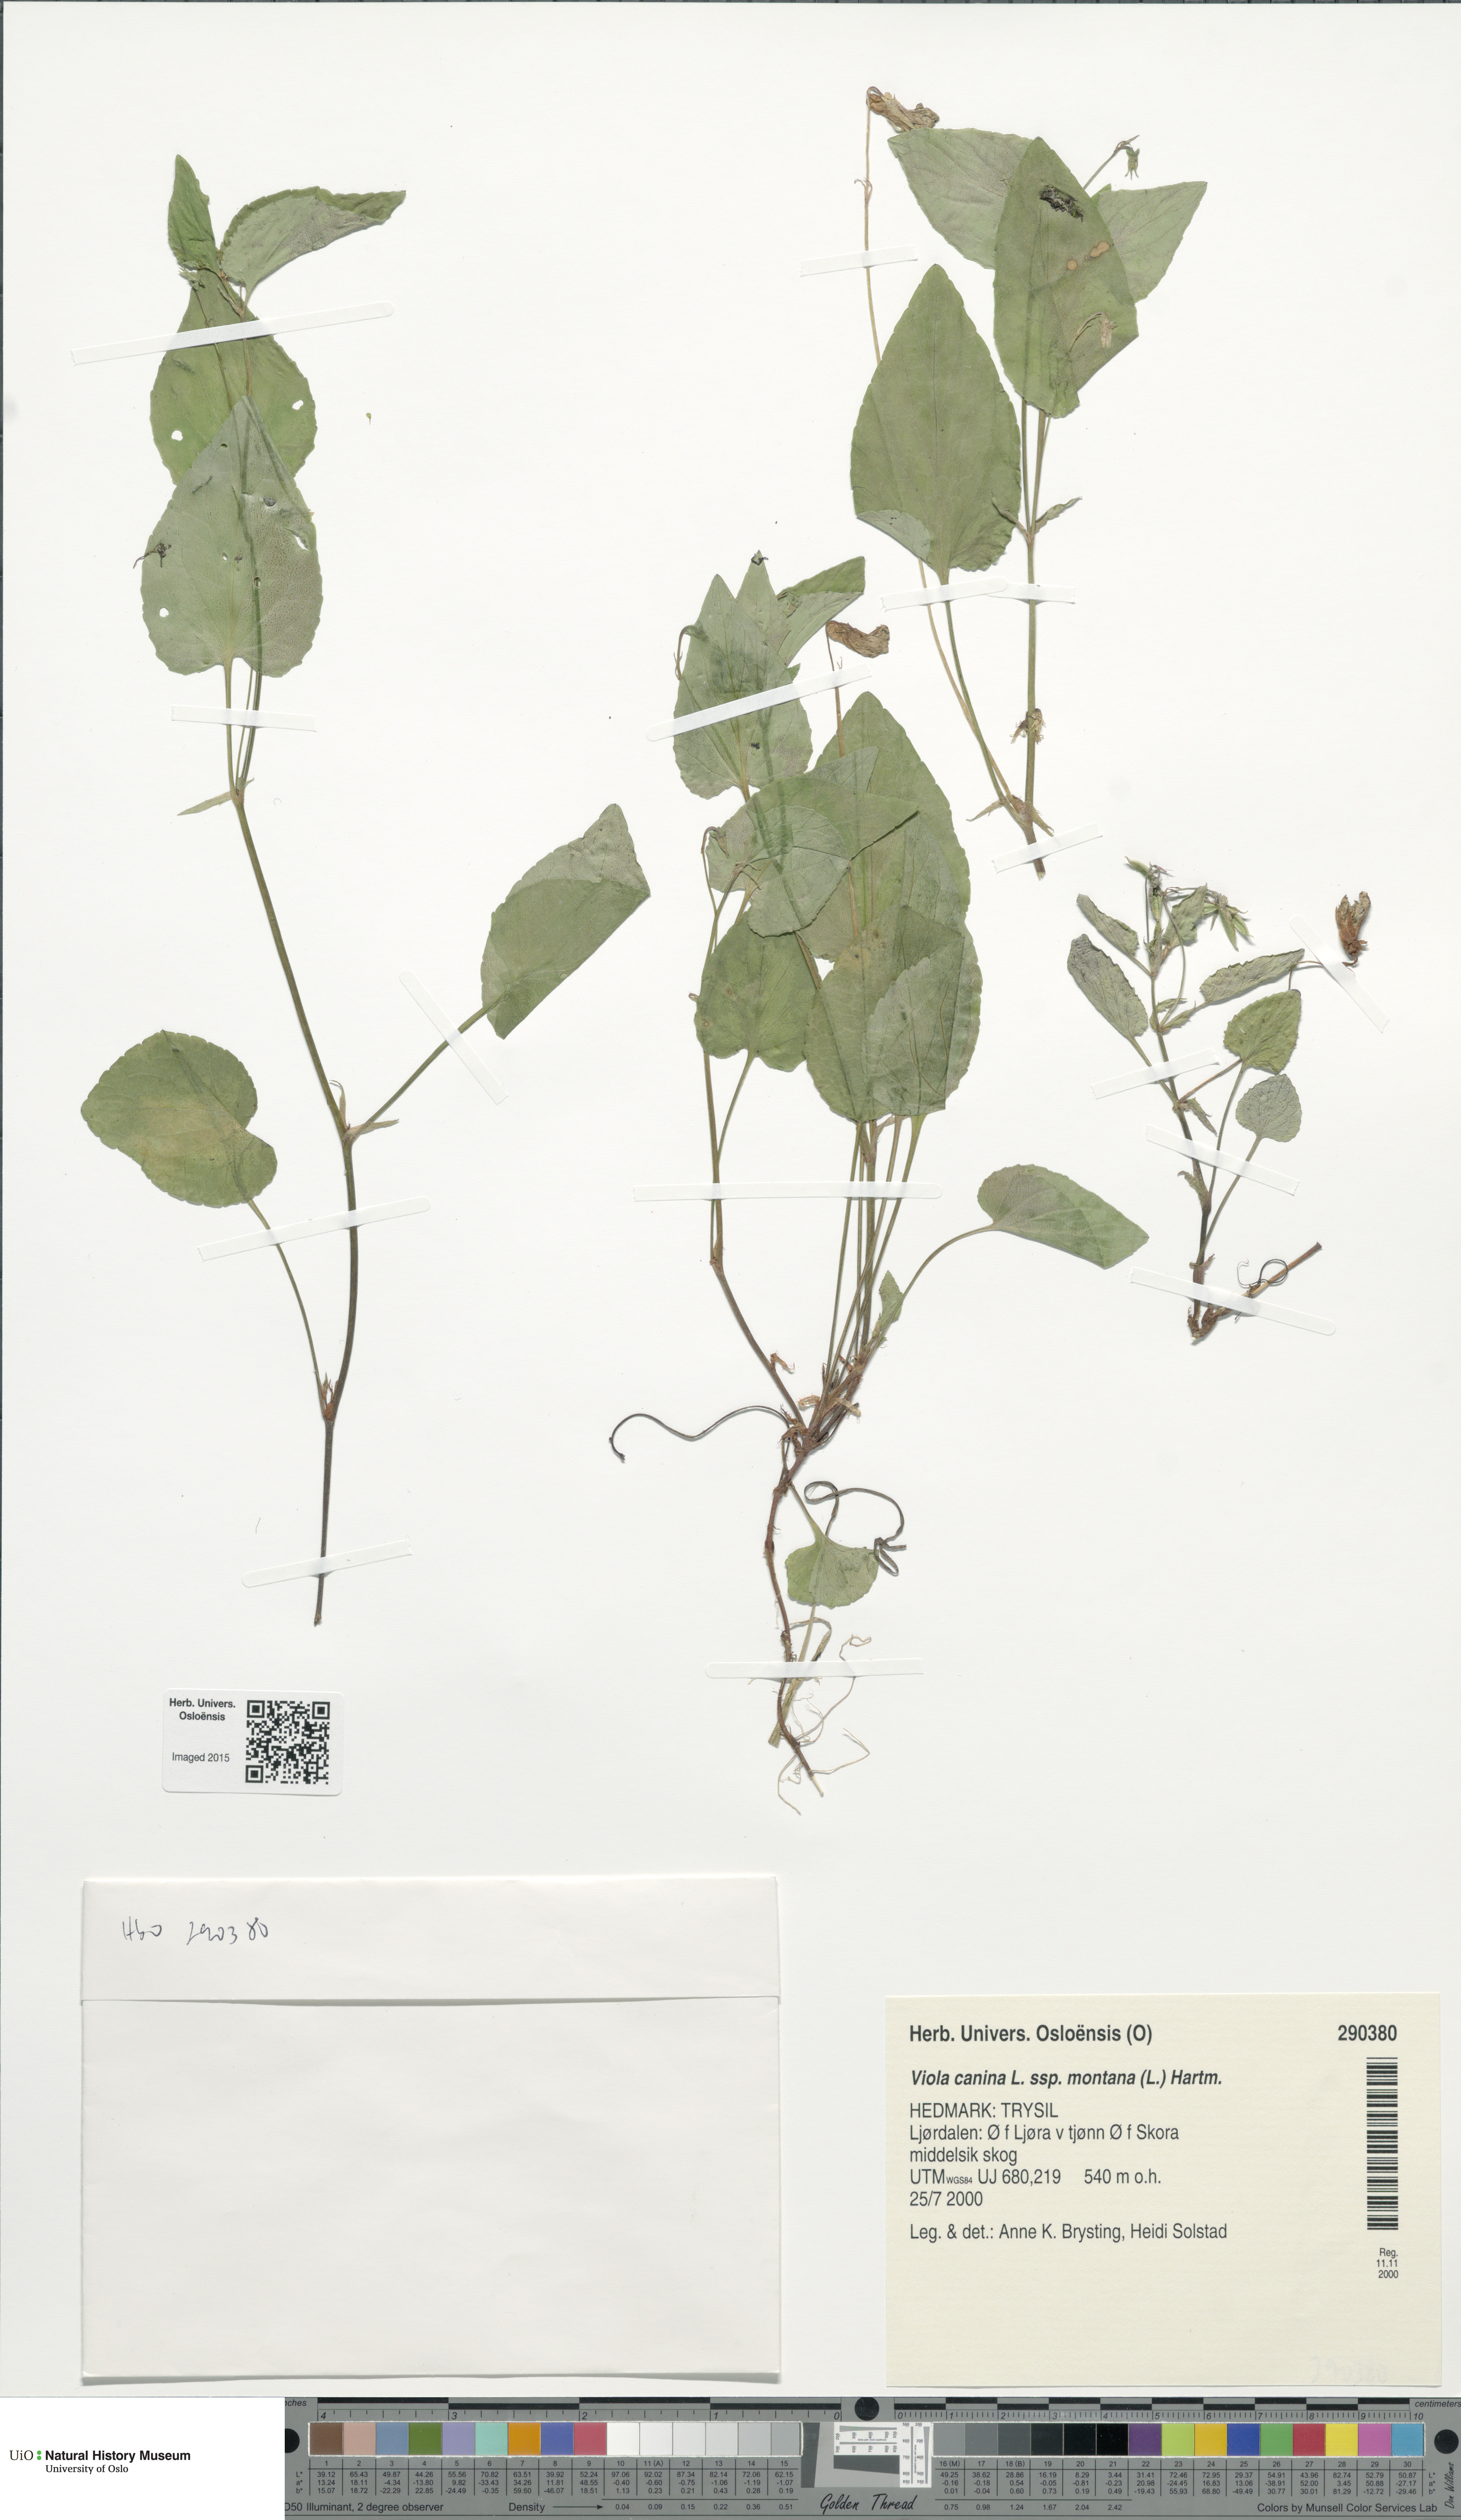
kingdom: Plantae
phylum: Tracheophyta
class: Magnoliopsida
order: Malpighiales
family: Violaceae
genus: Viola
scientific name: Viola ruppii
